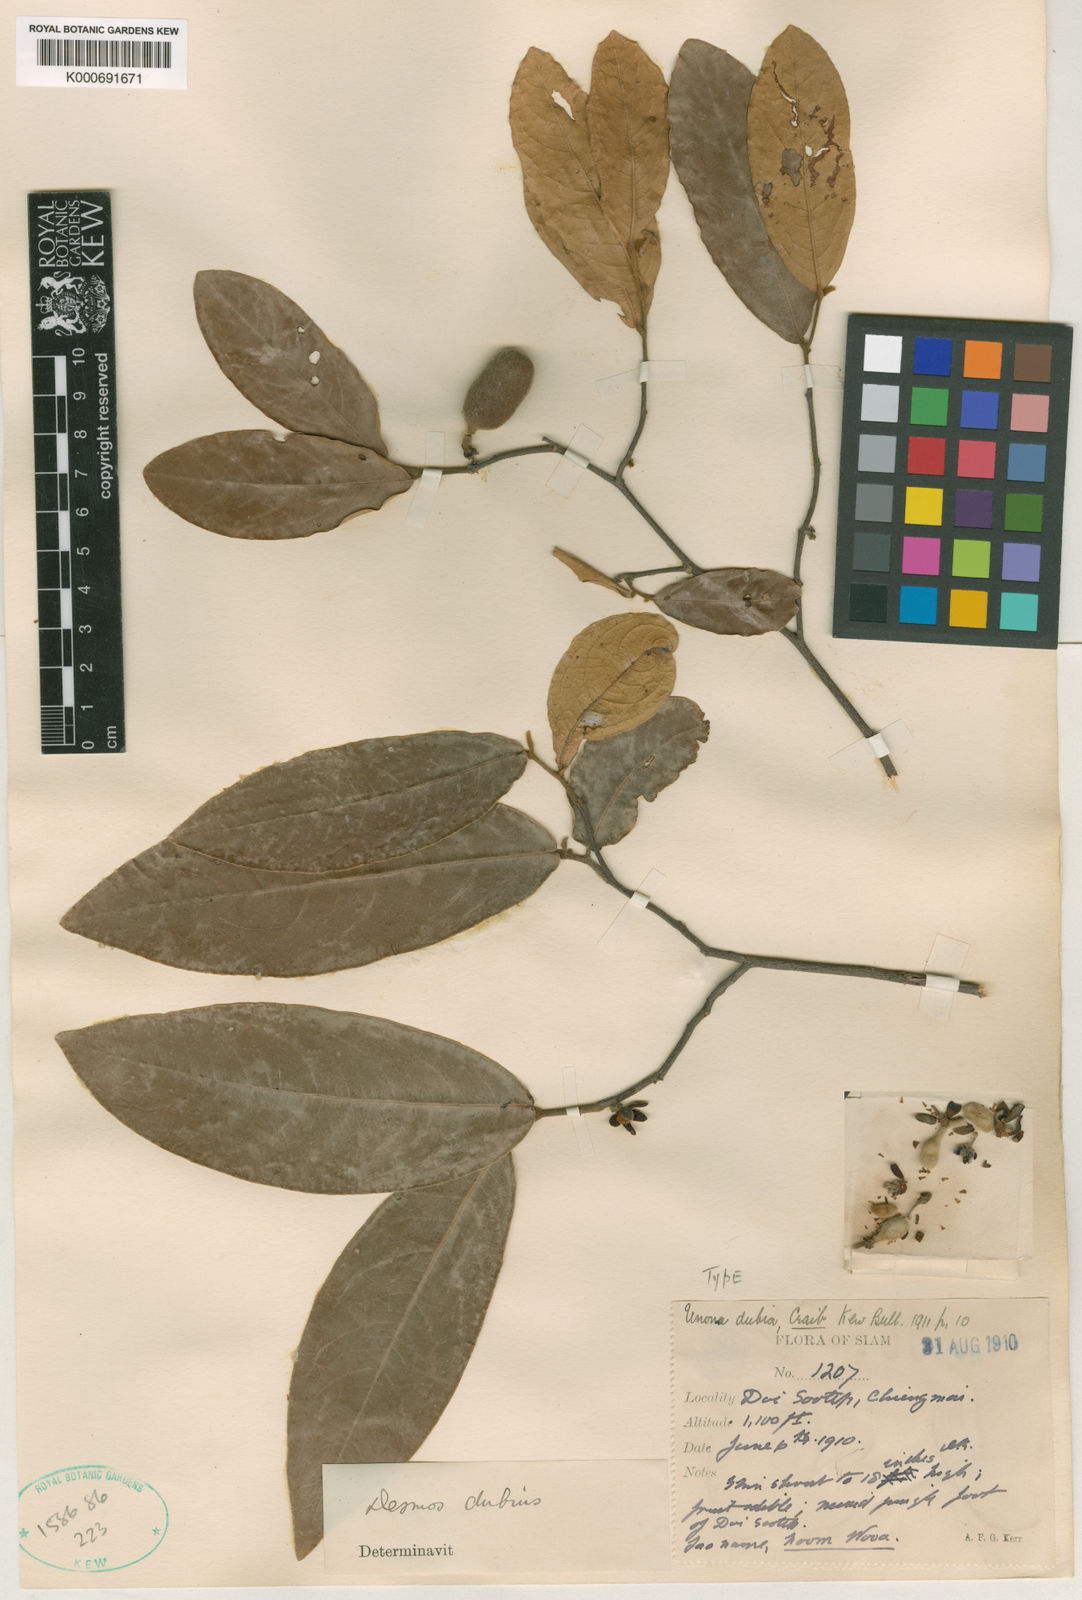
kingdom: Plantae
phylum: Tracheophyta
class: Magnoliopsida
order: Magnoliales
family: Annonaceae
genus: Polyalthia
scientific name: Polyalthia debilis
